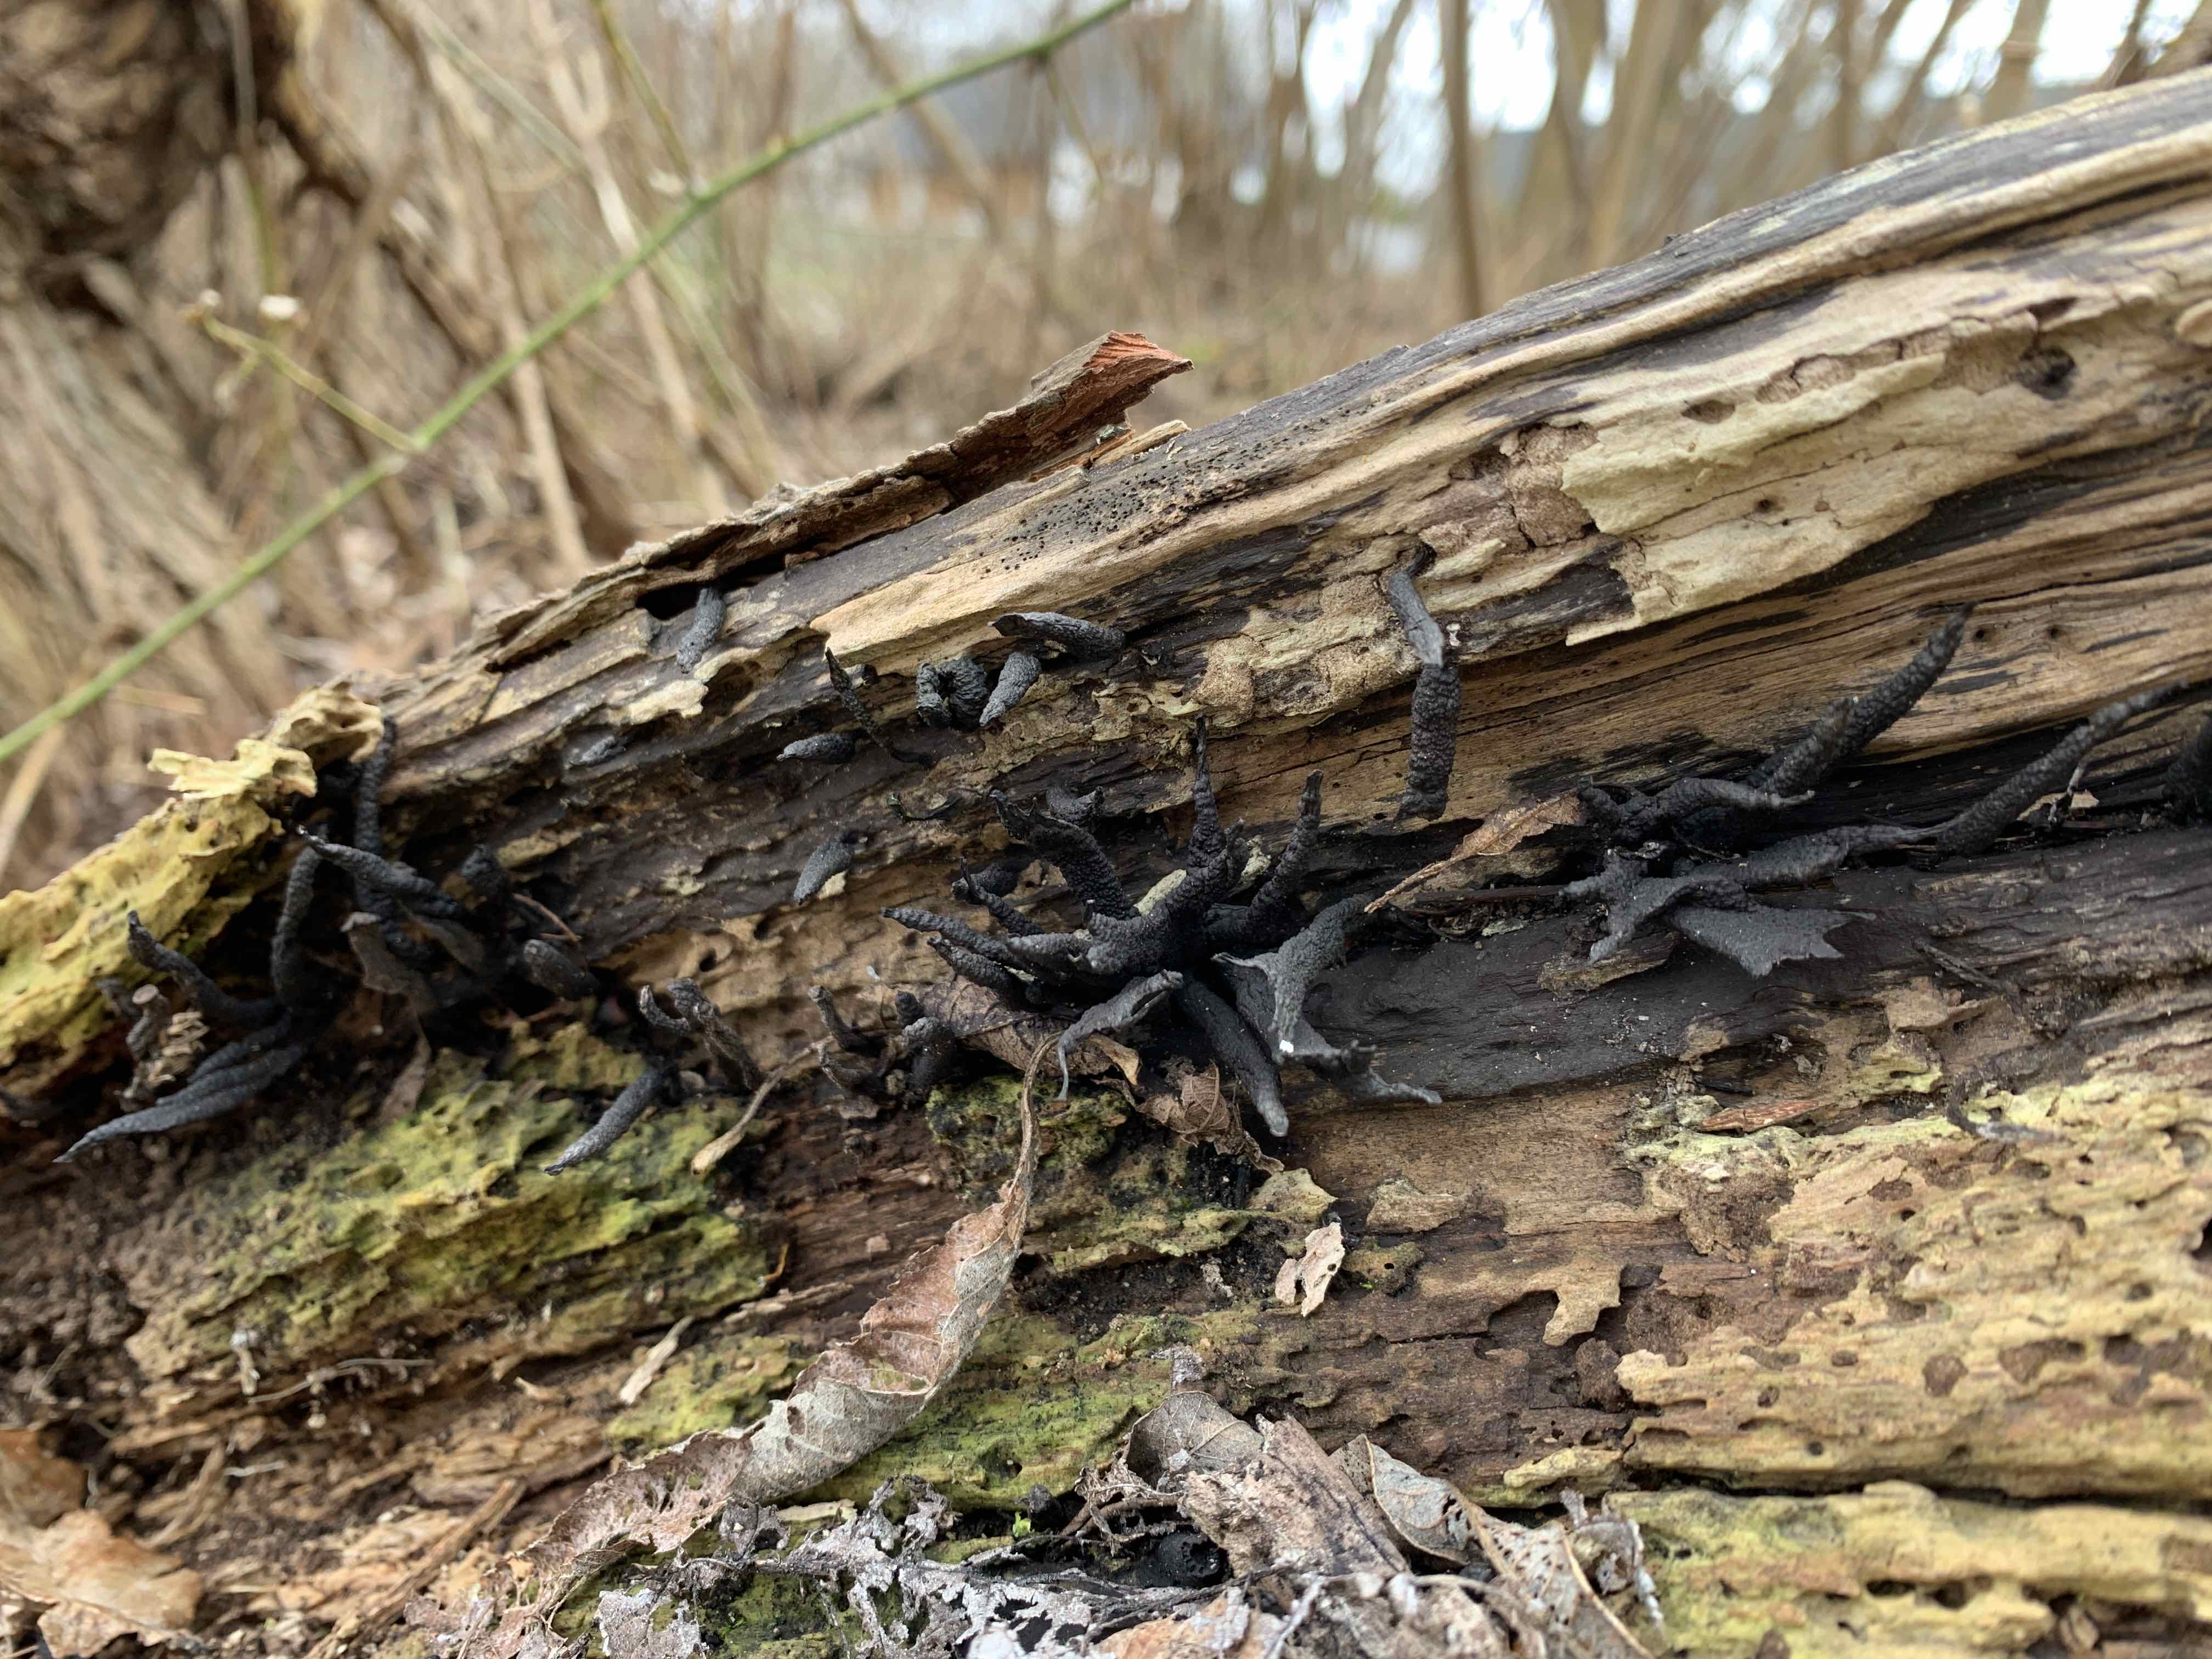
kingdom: Fungi
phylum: Ascomycota
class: Sordariomycetes
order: Xylariales
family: Xylariaceae
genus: Xylaria
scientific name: Xylaria hypoxylon
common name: grenet stødsvamp
